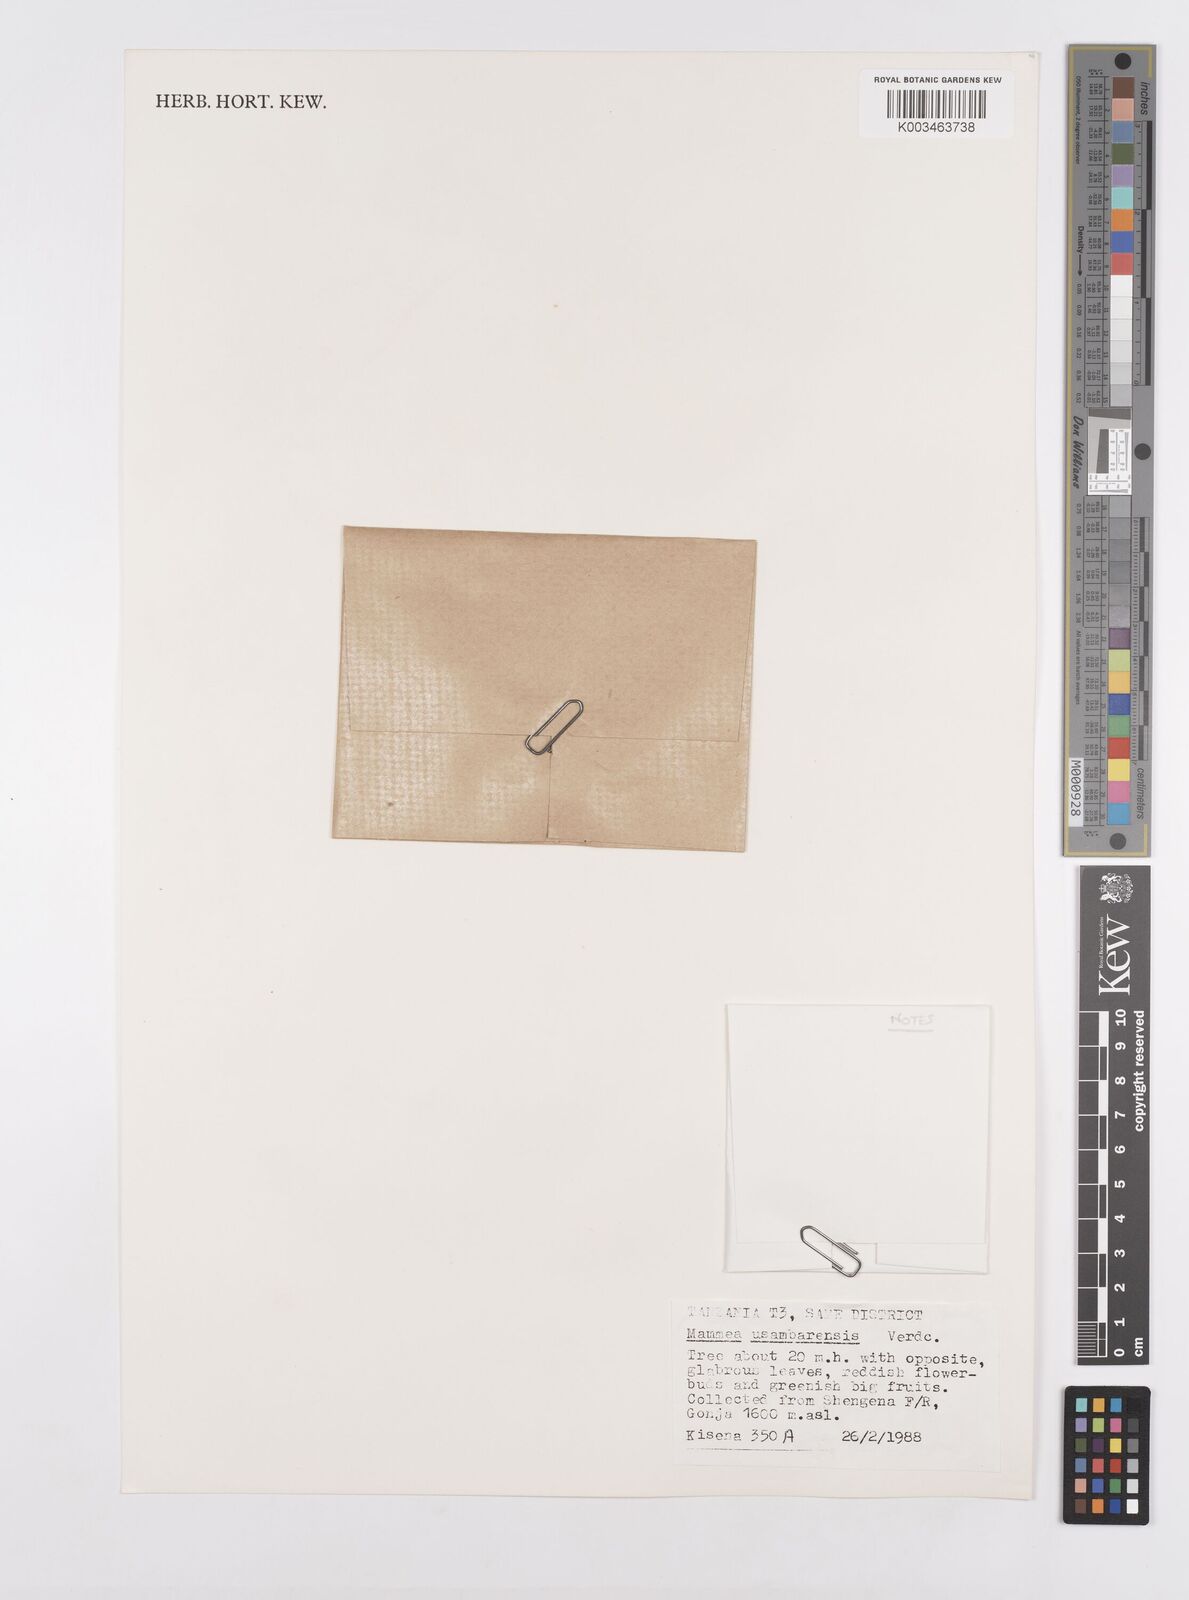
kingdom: Plantae
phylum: Tracheophyta
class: Magnoliopsida
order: Malpighiales
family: Calophyllaceae
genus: Mammea
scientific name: Mammea africana
